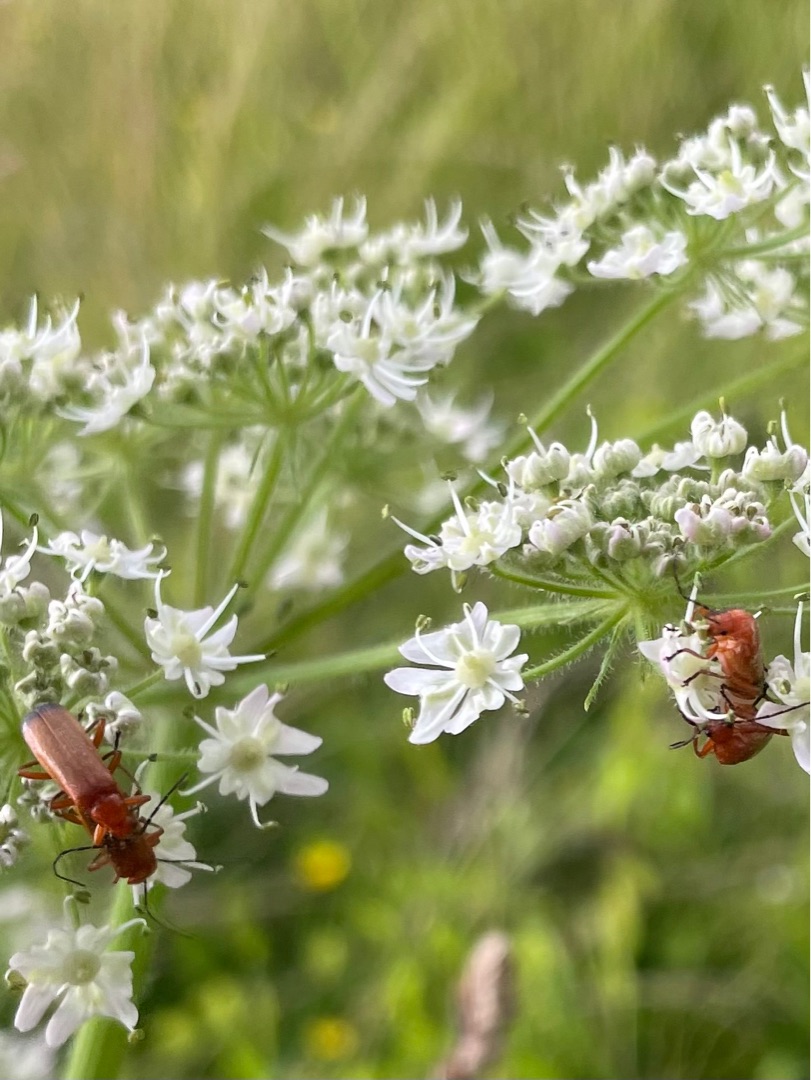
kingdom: Animalia
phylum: Arthropoda
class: Insecta
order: Coleoptera
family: Cantharidae
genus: Rhagonycha
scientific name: Rhagonycha fulva
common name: Præstebille
